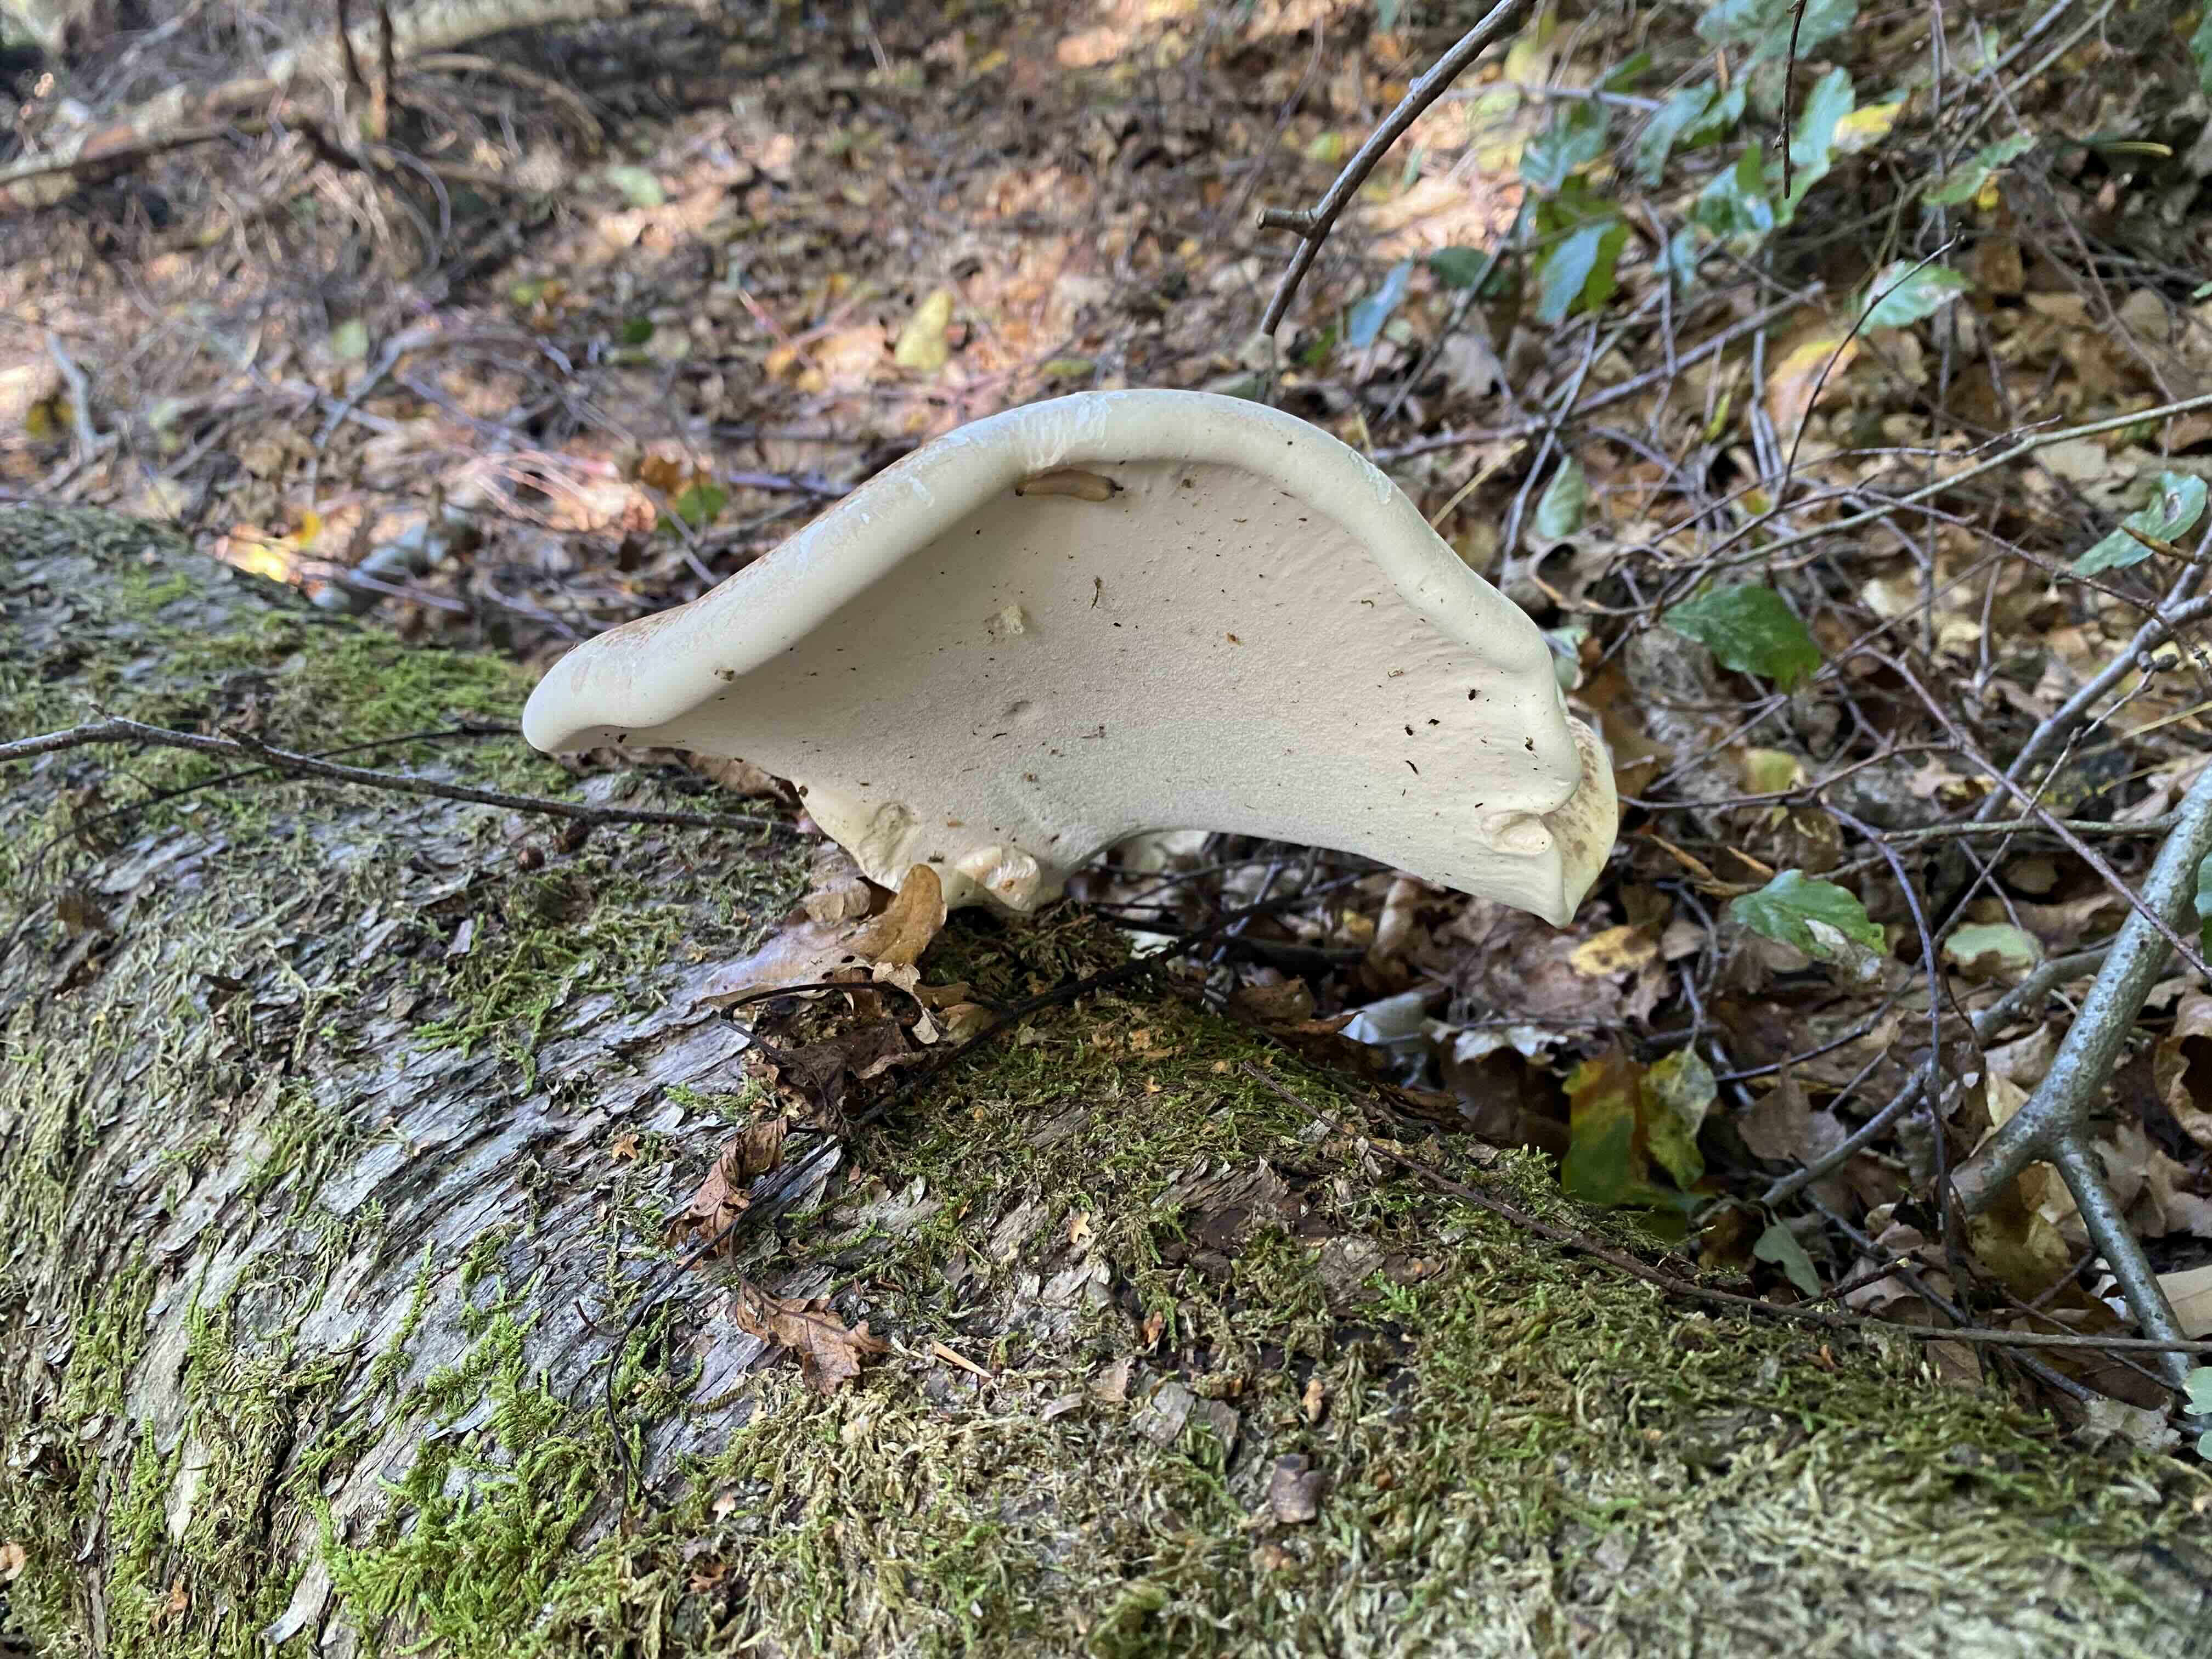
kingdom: Fungi
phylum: Basidiomycota
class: Agaricomycetes
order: Polyporales
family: Fomitopsidaceae
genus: Fomitopsis
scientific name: Fomitopsis betulina
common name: birkeporesvamp
